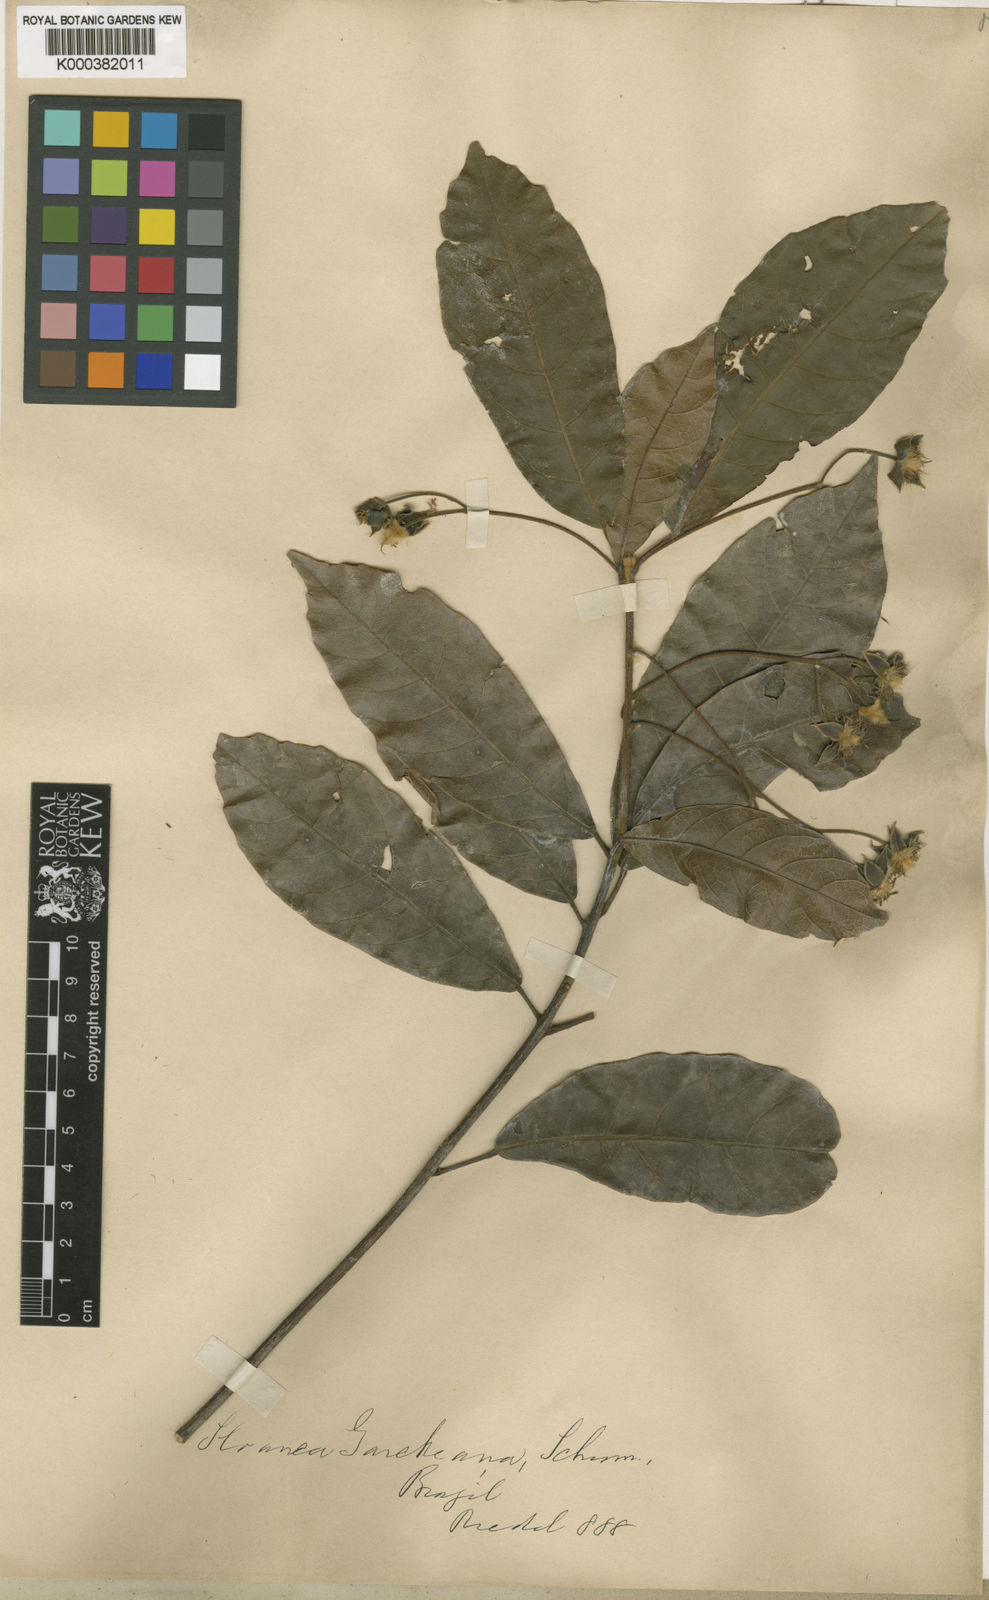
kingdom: Plantae
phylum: Tracheophyta
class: Magnoliopsida
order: Oxalidales
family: Elaeocarpaceae
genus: Sloanea
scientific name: Sloanea garckeana
